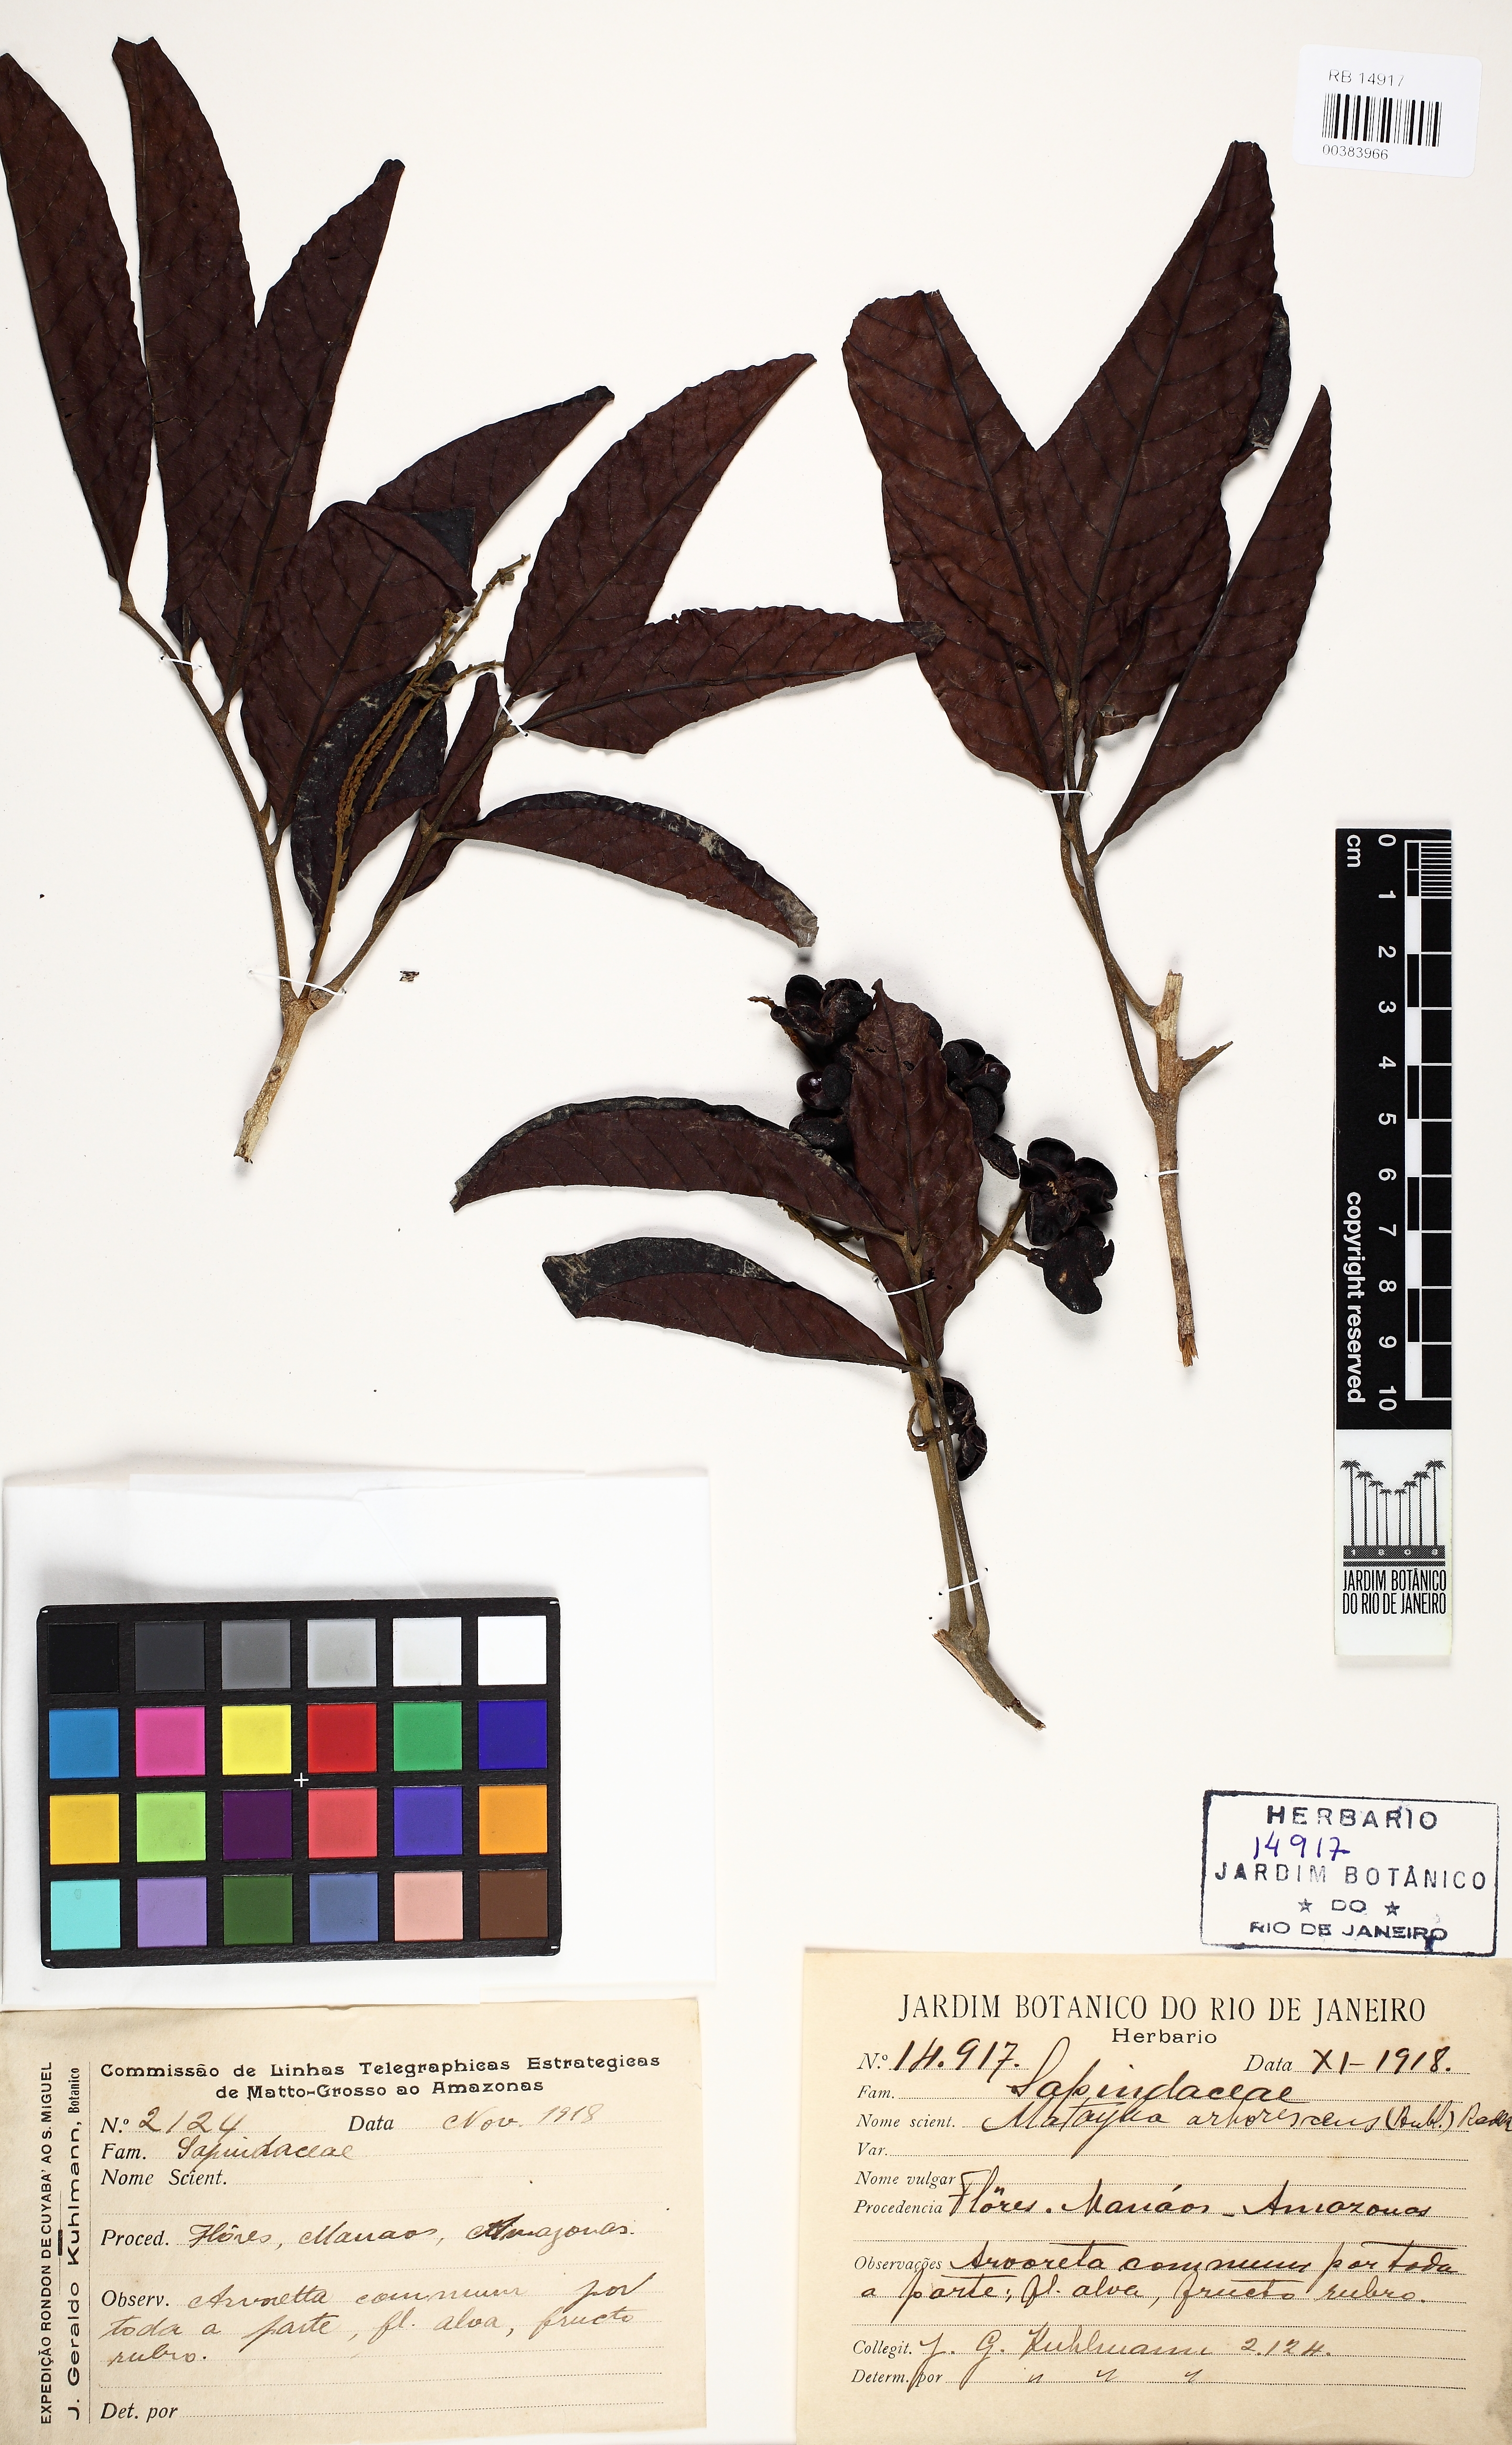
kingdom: Plantae
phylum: Tracheophyta
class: Magnoliopsida
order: Sapindales
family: Sapindaceae
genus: Matayba
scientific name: Matayba arborescens
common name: Arborescent matayba
